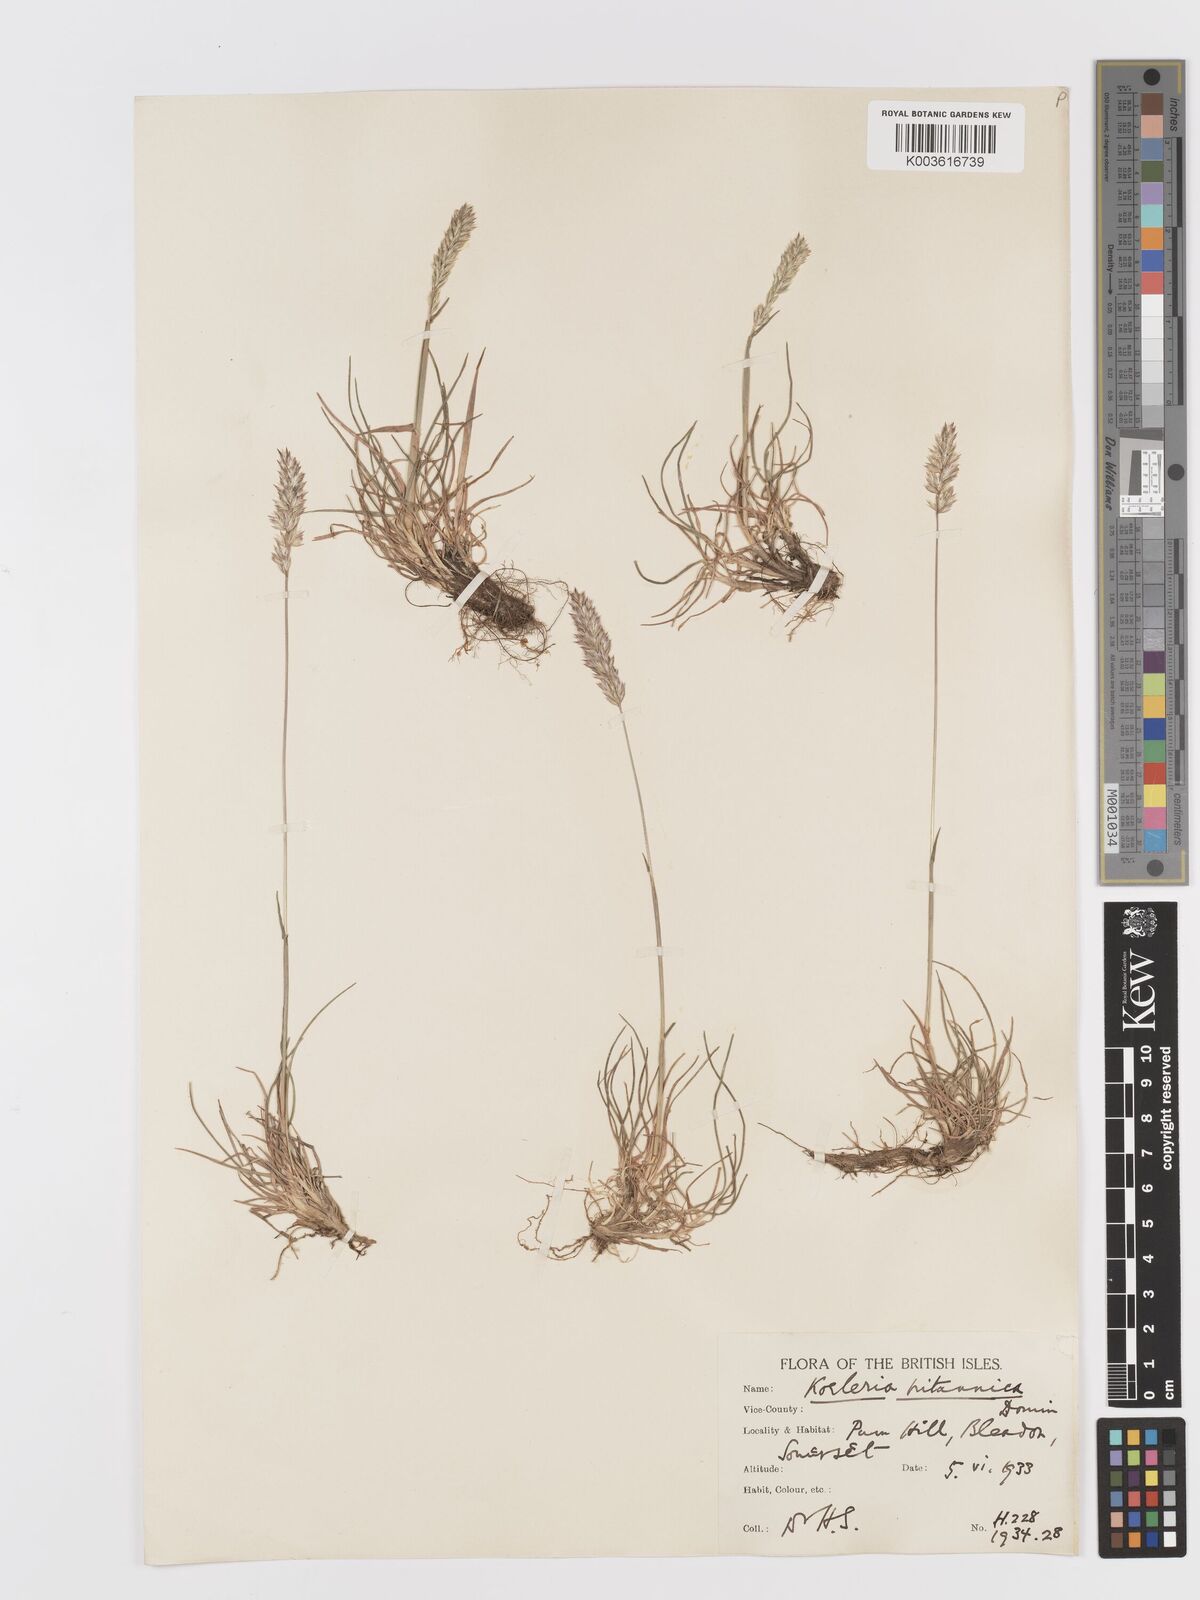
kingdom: Plantae
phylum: Tracheophyta
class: Liliopsida
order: Poales
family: Poaceae
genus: Koeleria
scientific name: Koeleria
